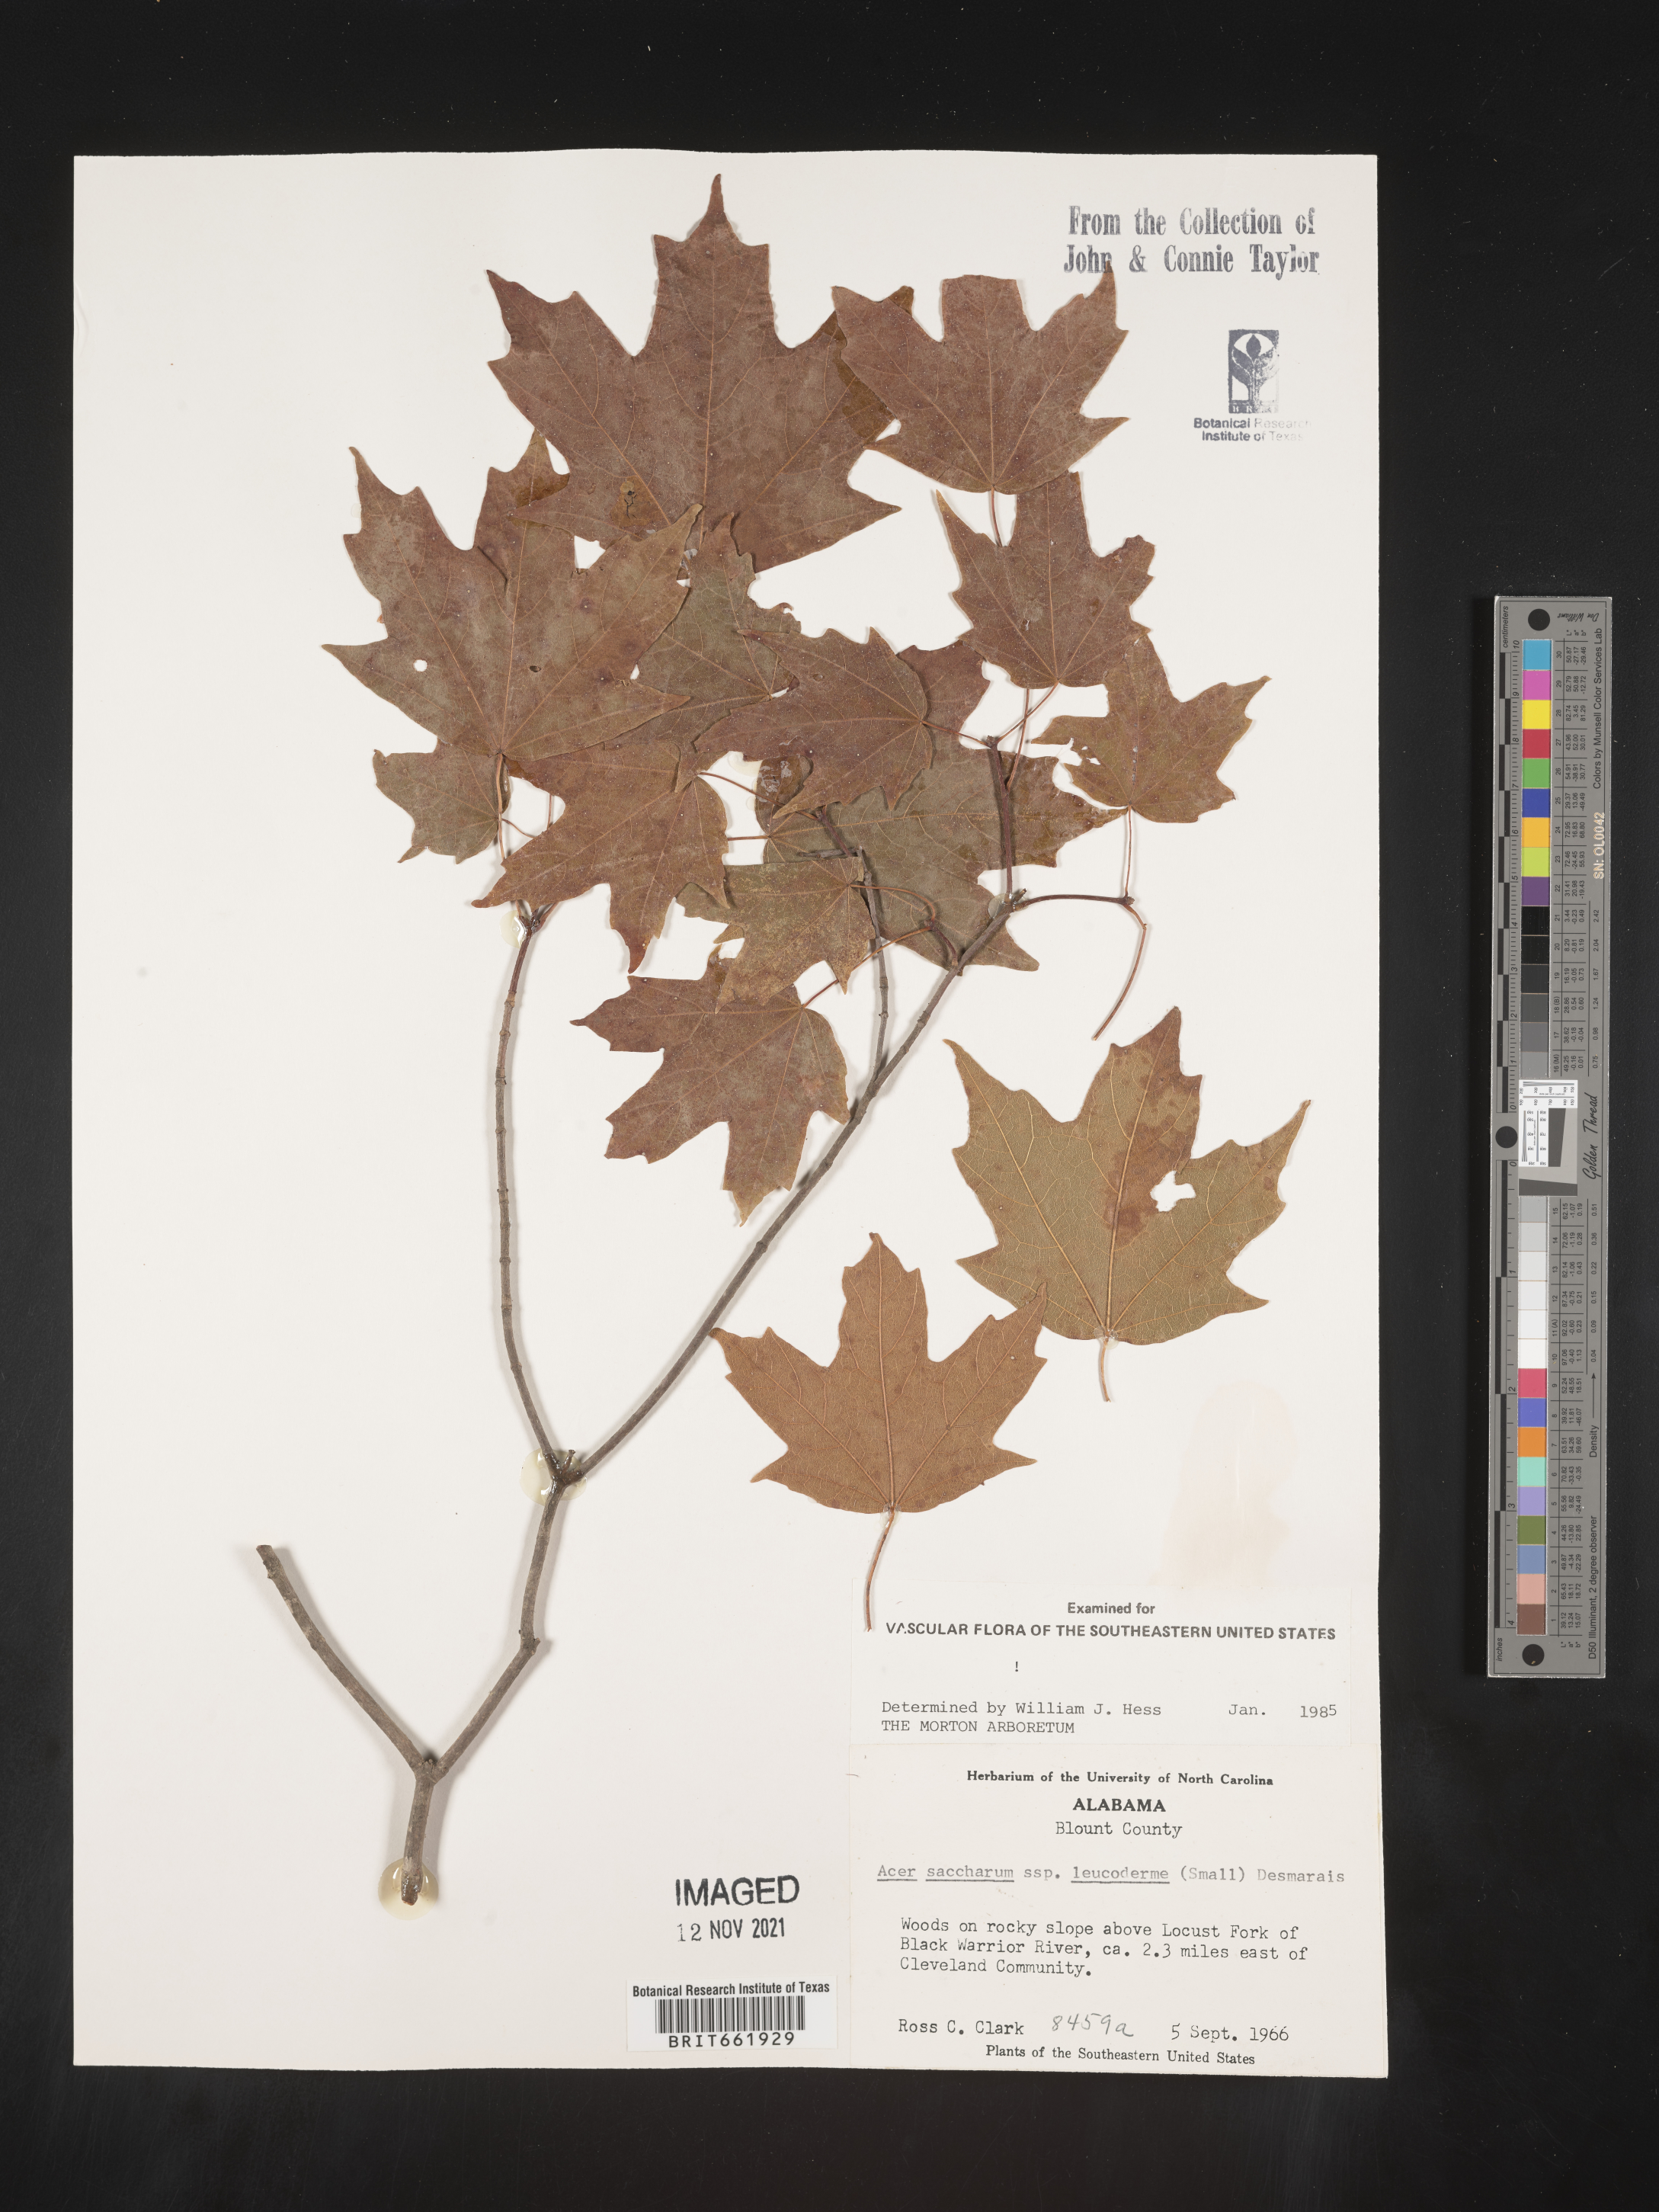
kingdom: Plantae
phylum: Tracheophyta
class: Magnoliopsida
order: Sapindales
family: Sapindaceae
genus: Acer
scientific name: Acer leucoderme
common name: Chalk maple
